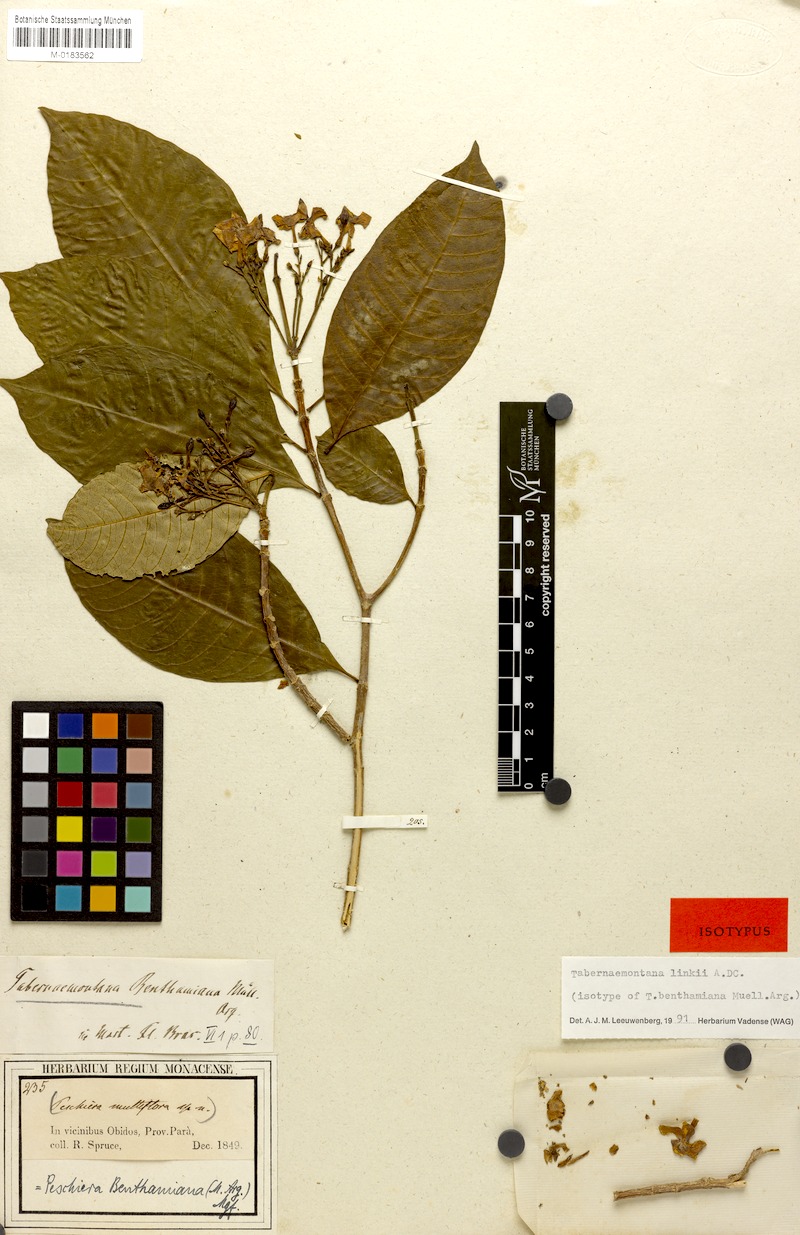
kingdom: Plantae
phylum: Tracheophyta
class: Magnoliopsida
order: Gentianales
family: Apocynaceae
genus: Tabernaemontana
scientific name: Tabernaemontana linkii
